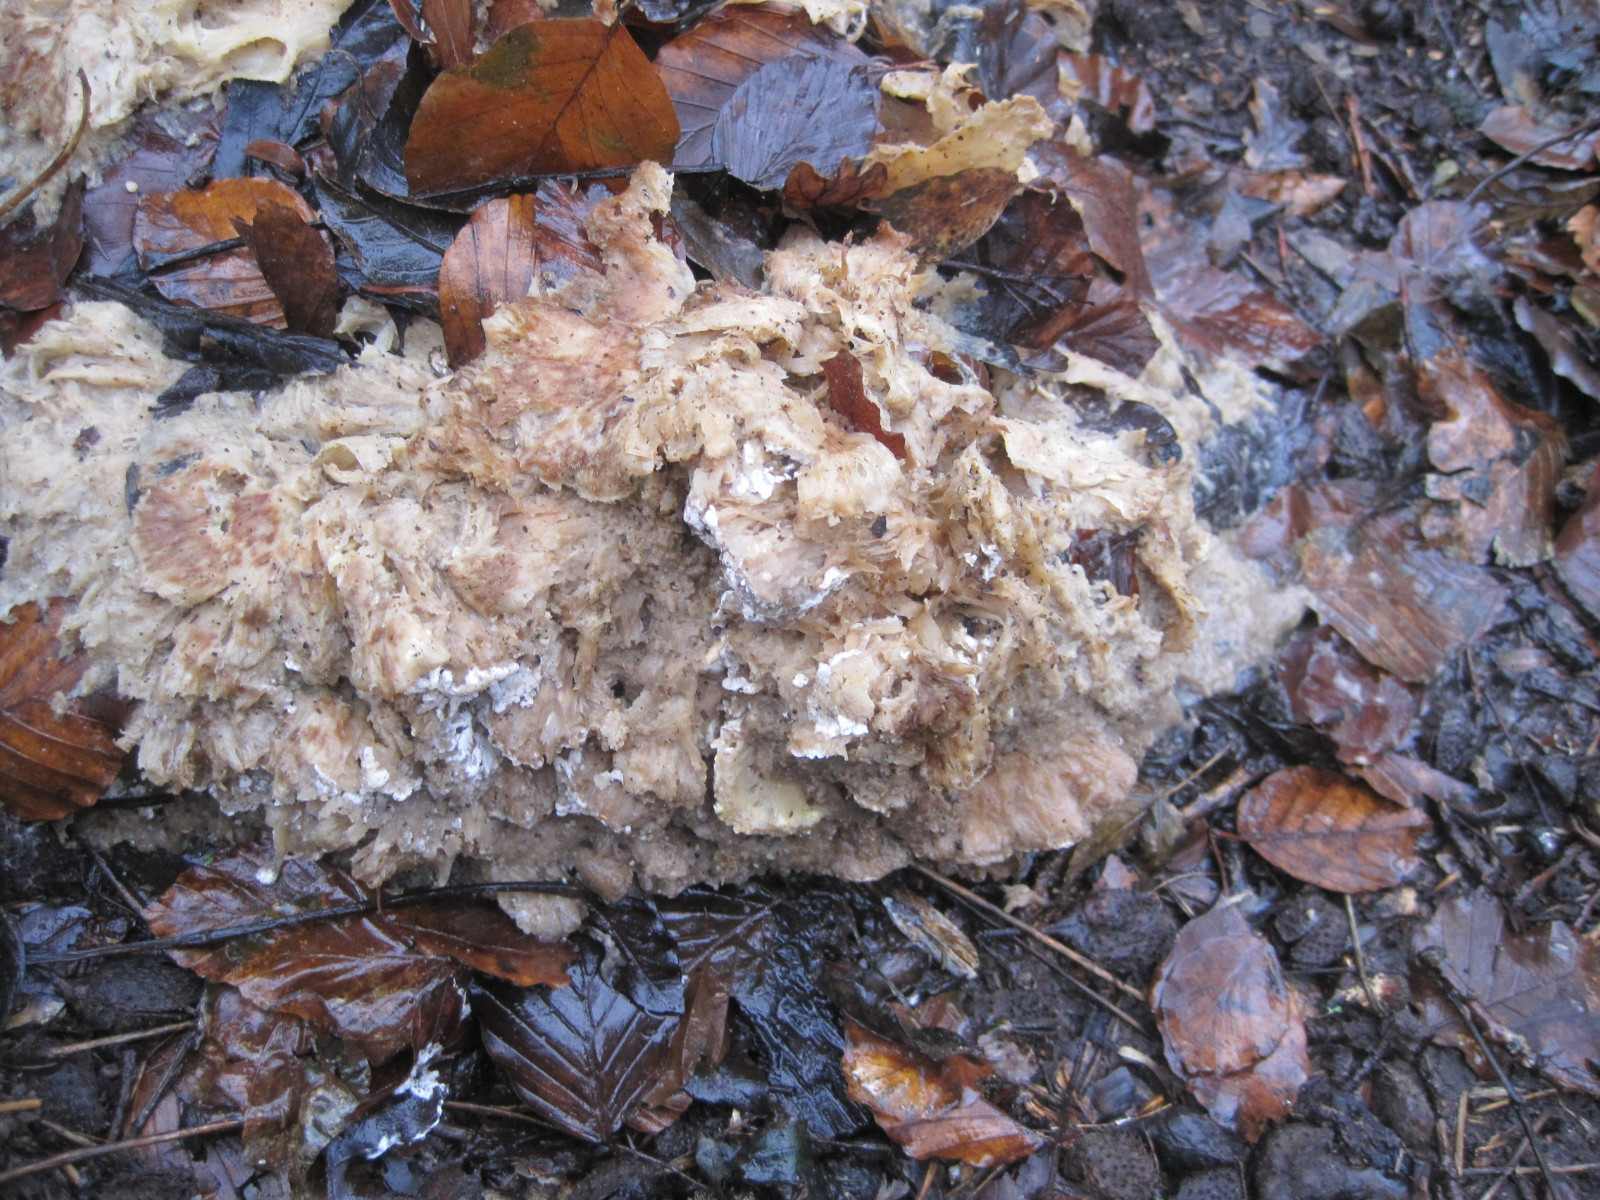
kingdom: Fungi
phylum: Basidiomycota
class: Agaricomycetes
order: Polyporales
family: Grifolaceae
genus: Grifola
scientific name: Grifola frondosa
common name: tueporesvamp
